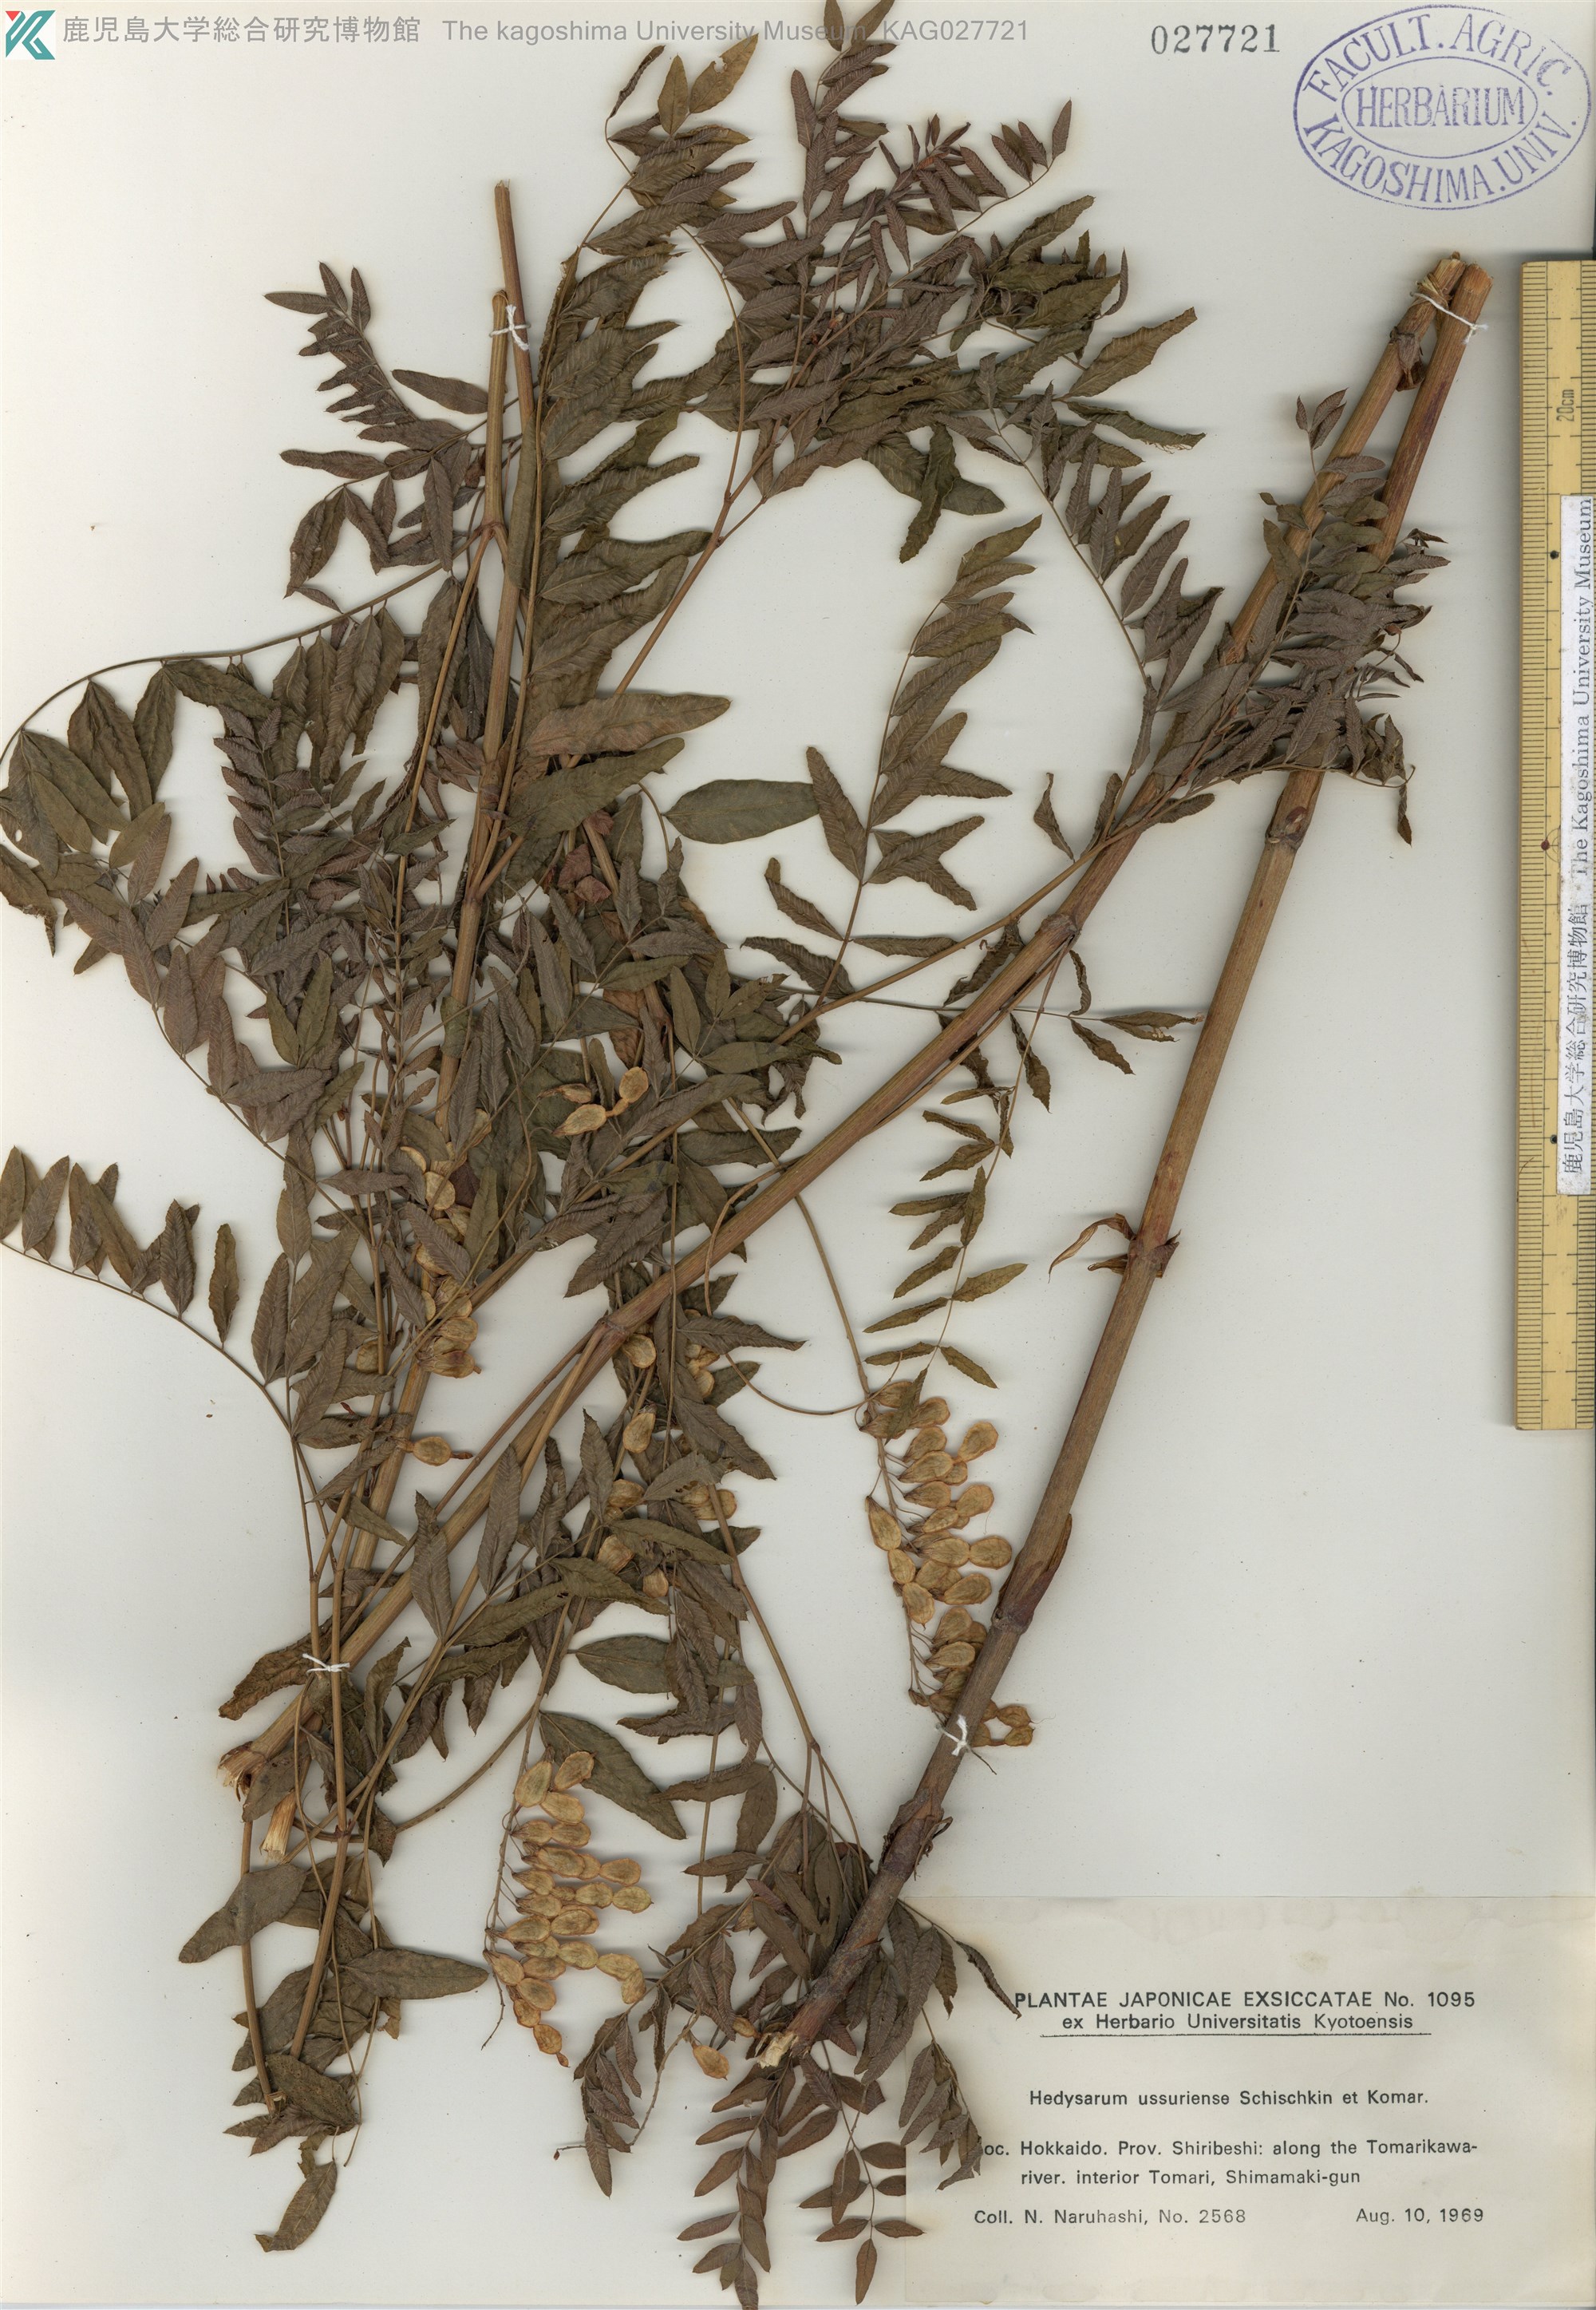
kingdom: Plantae
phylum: Tracheophyta
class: Magnoliopsida
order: Fabales
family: Fabaceae
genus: Hedysarum
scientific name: Hedysarum vicioides
